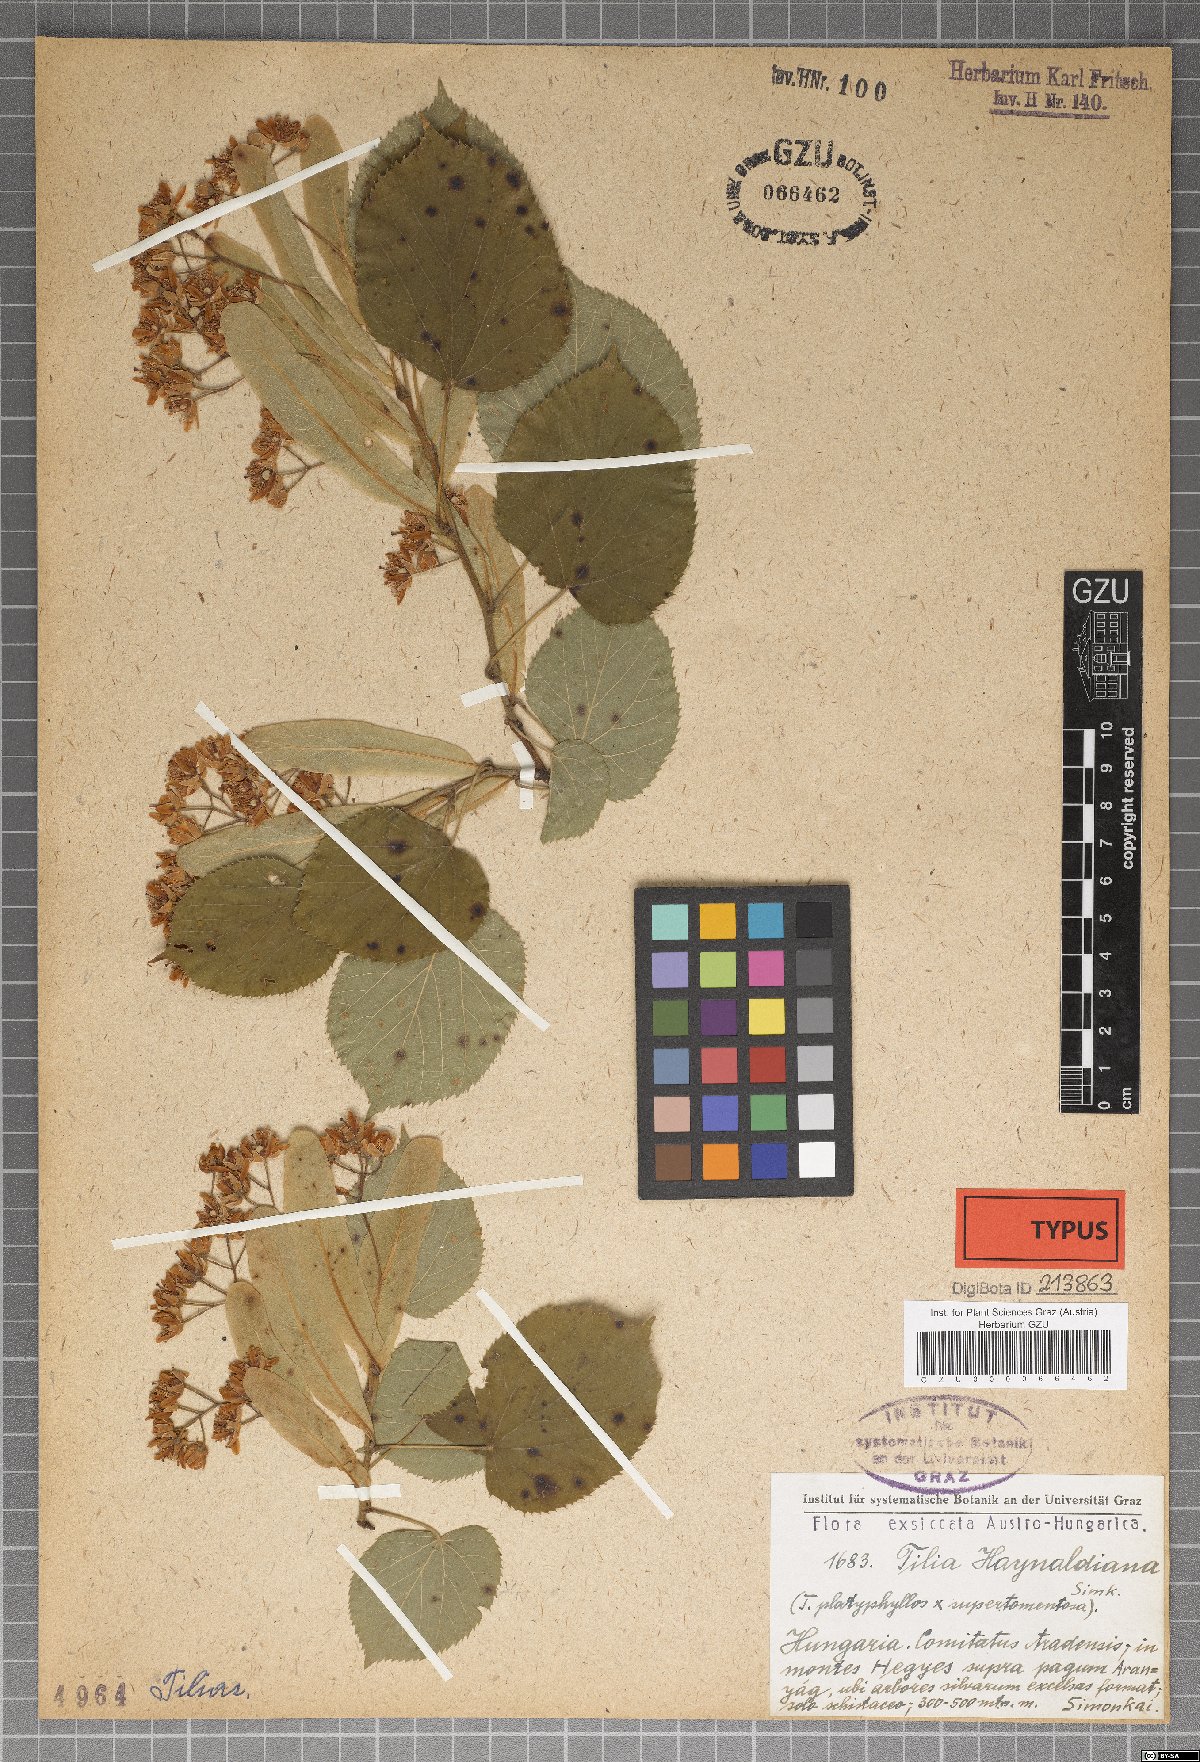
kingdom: Plantae
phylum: Tracheophyta
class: Magnoliopsida
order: Malvales
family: Malvaceae
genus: Tilia
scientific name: Tilia haynaldiana
